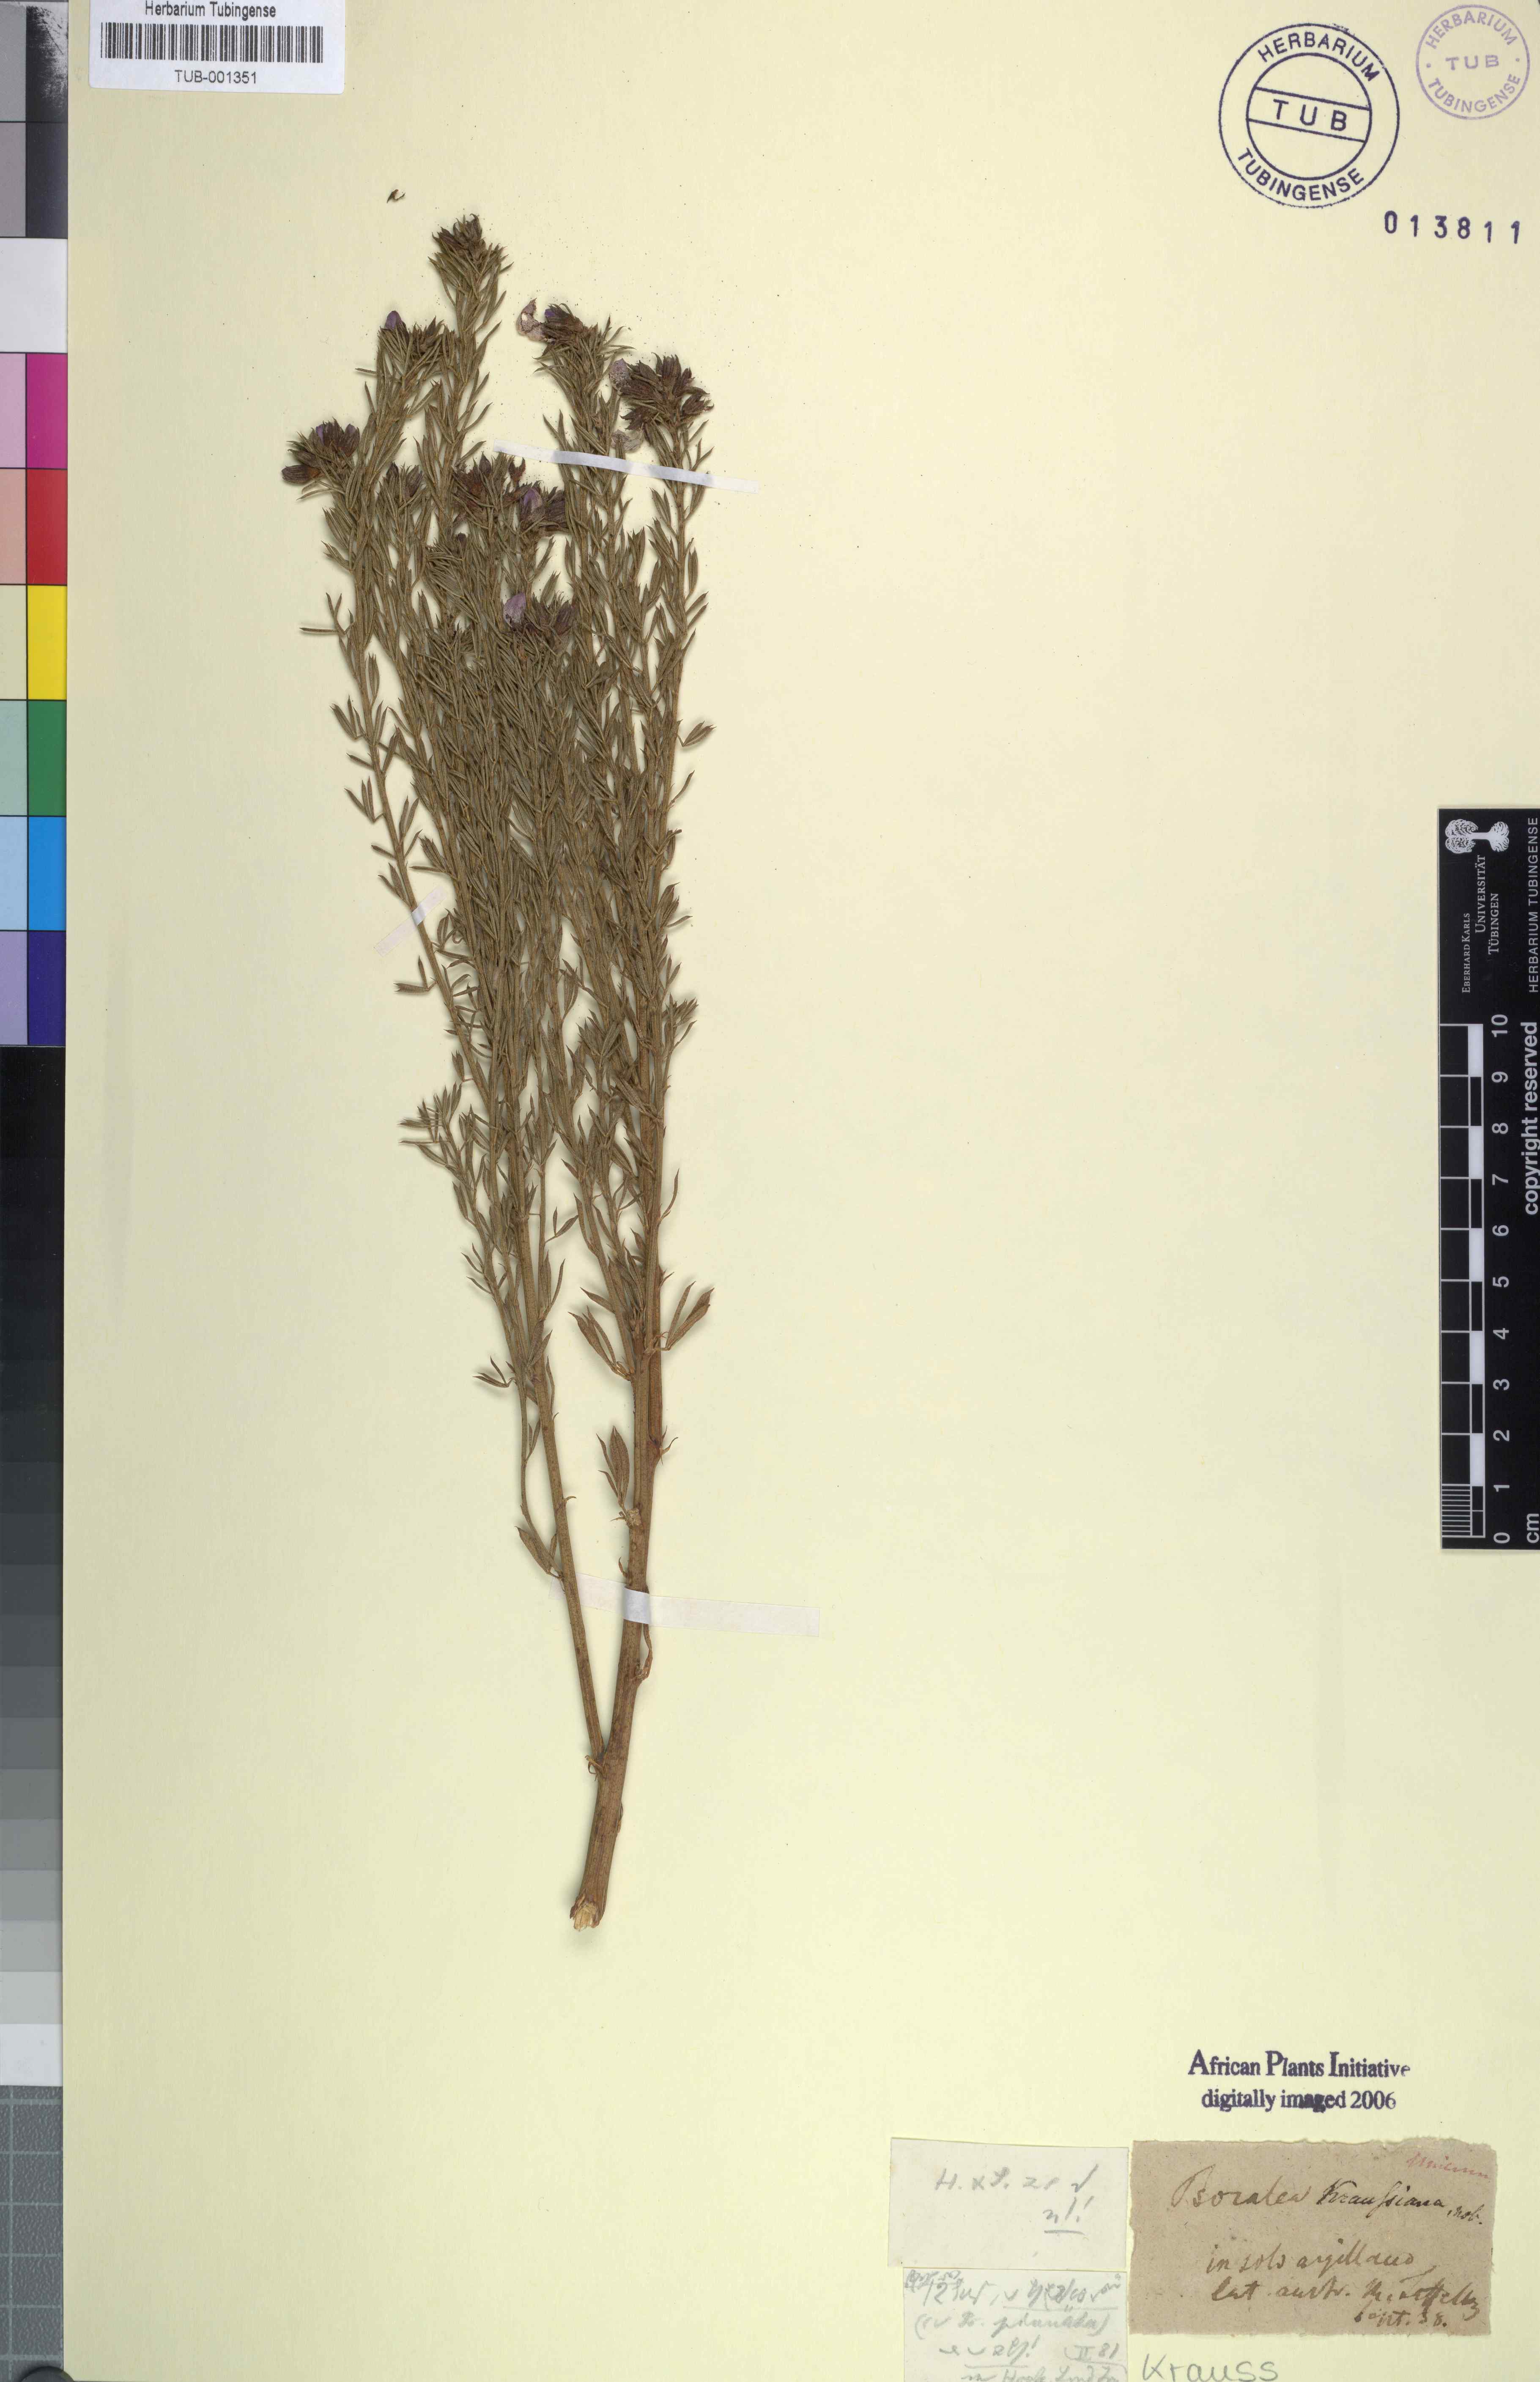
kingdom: Plantae
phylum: Tracheophyta
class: Magnoliopsida
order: Fabales
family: Fabaceae
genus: Psoralea
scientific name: Psoralea aculeata
